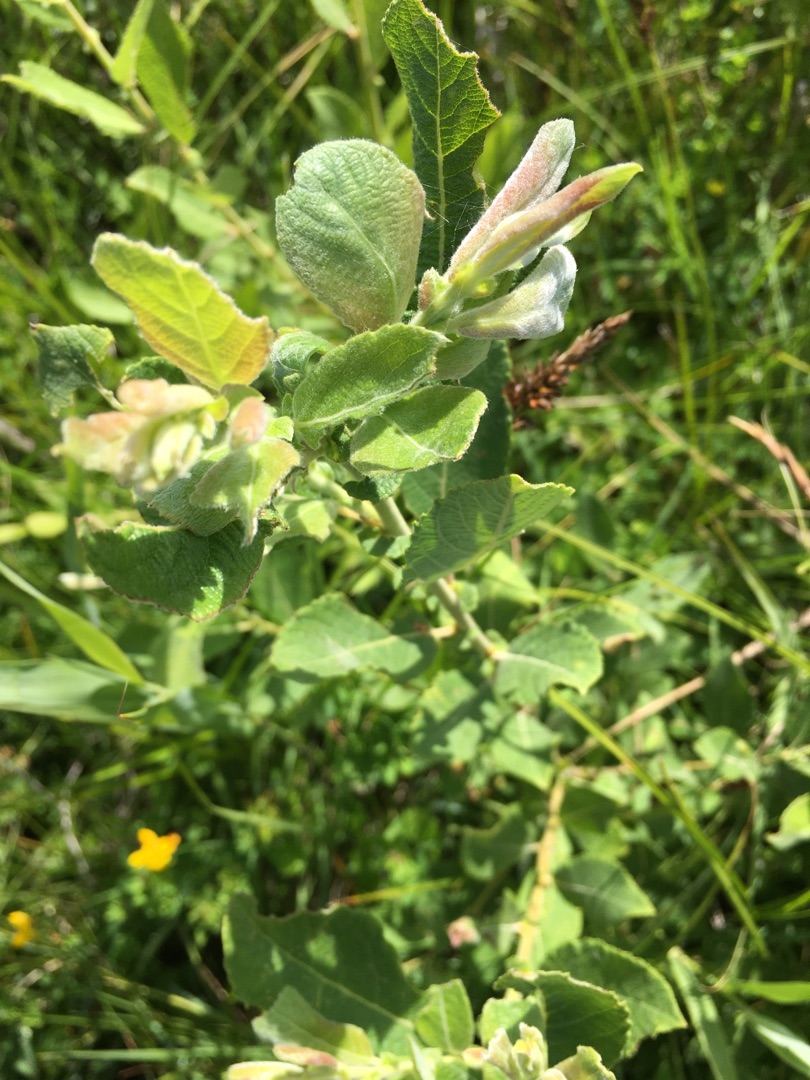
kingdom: Plantae
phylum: Tracheophyta
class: Magnoliopsida
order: Malpighiales
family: Salicaceae
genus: Salix
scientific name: Salix aurita
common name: Øret pil
